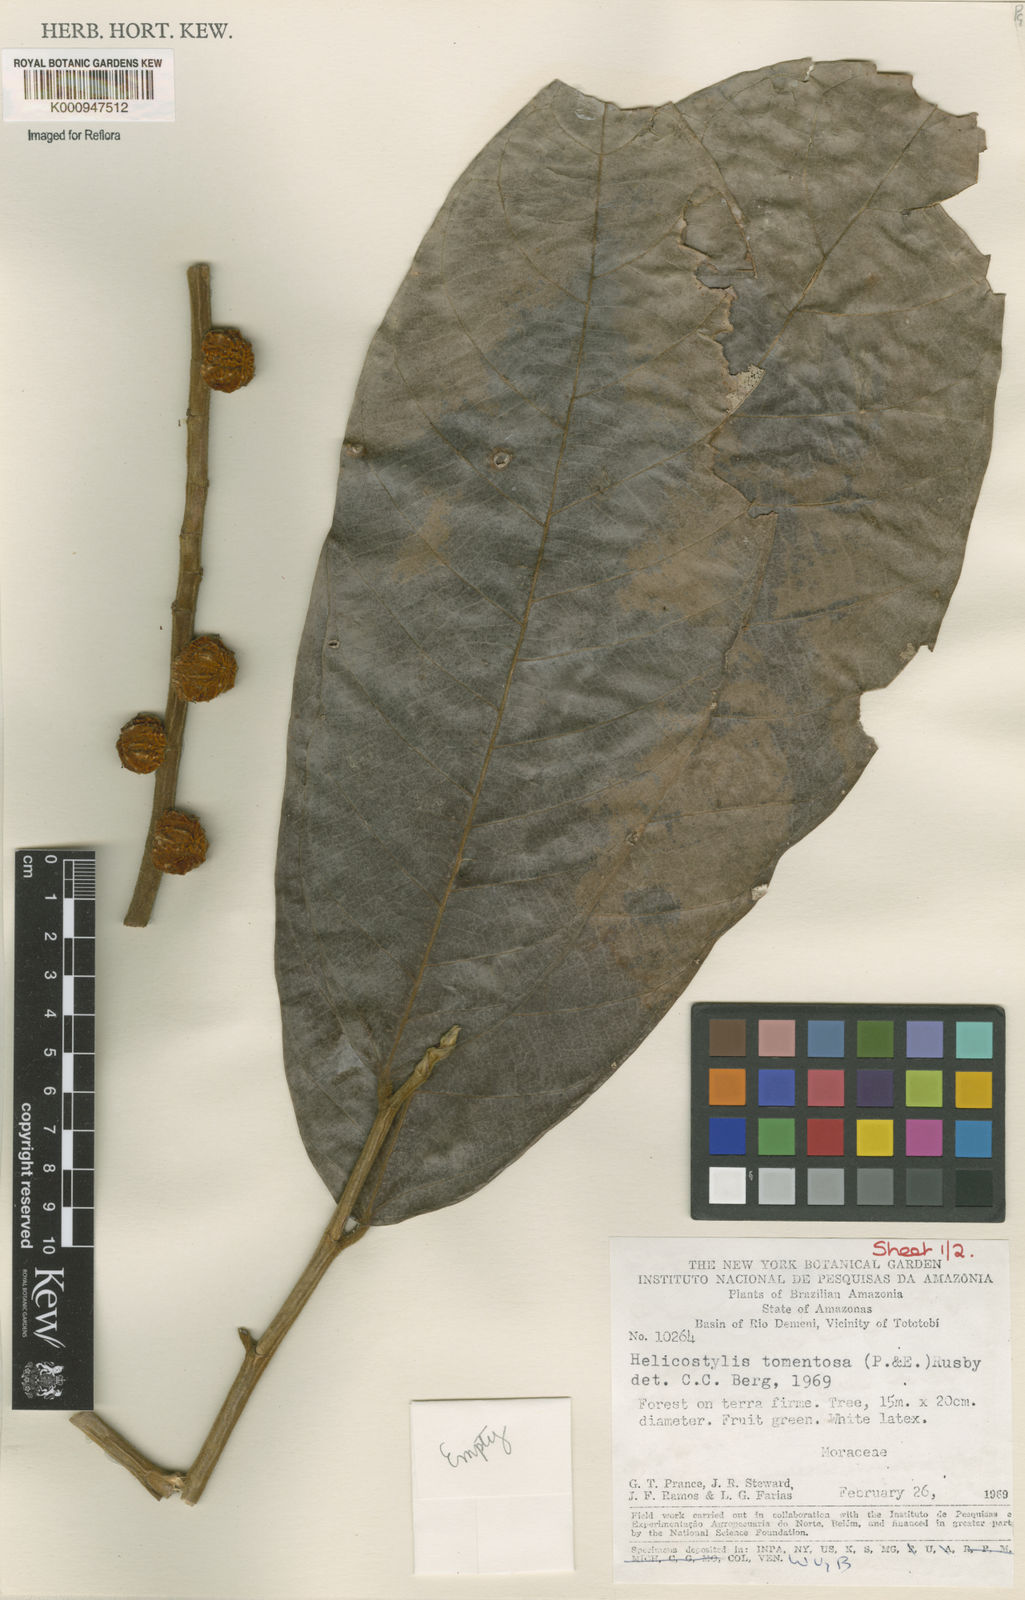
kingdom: Plantae
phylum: Tracheophyta
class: Magnoliopsida
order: Rosales
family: Moraceae
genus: Helicostylis
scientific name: Helicostylis
